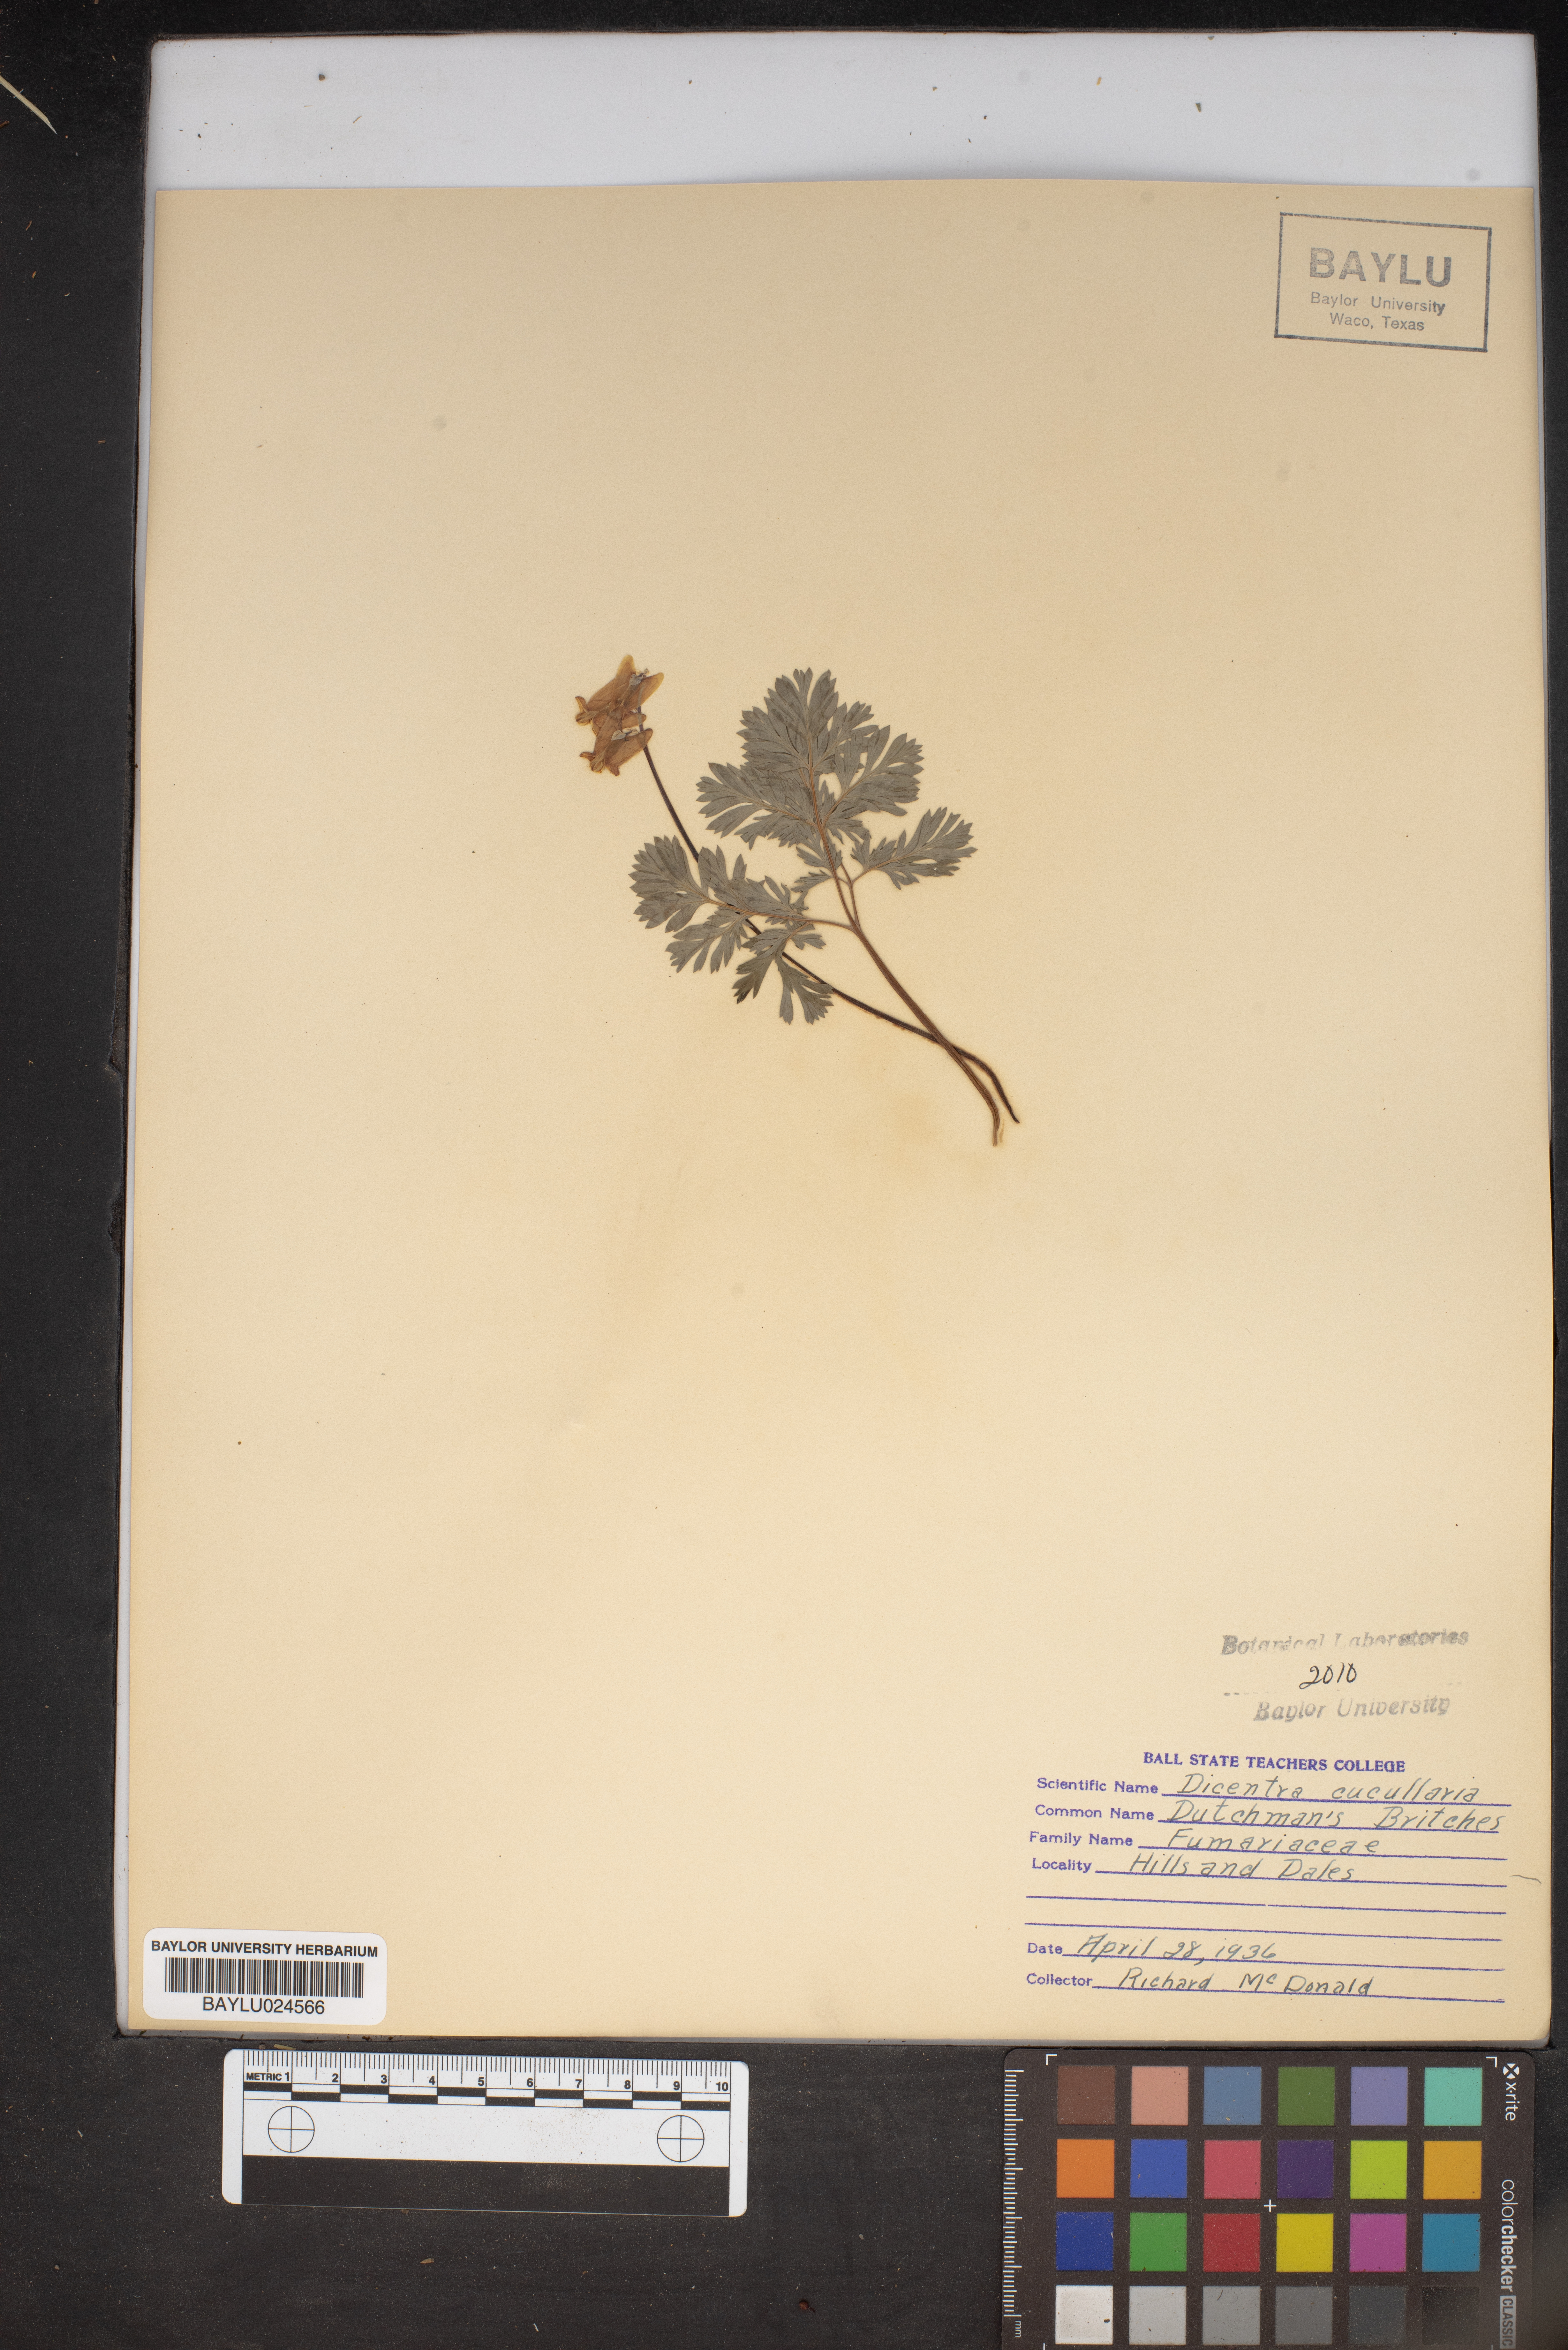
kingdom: Plantae
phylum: Tracheophyta
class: Magnoliopsida
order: Ranunculales
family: Papaveraceae
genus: Dicentra
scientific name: Dicentra cucullaria
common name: Dutchman's breeches
